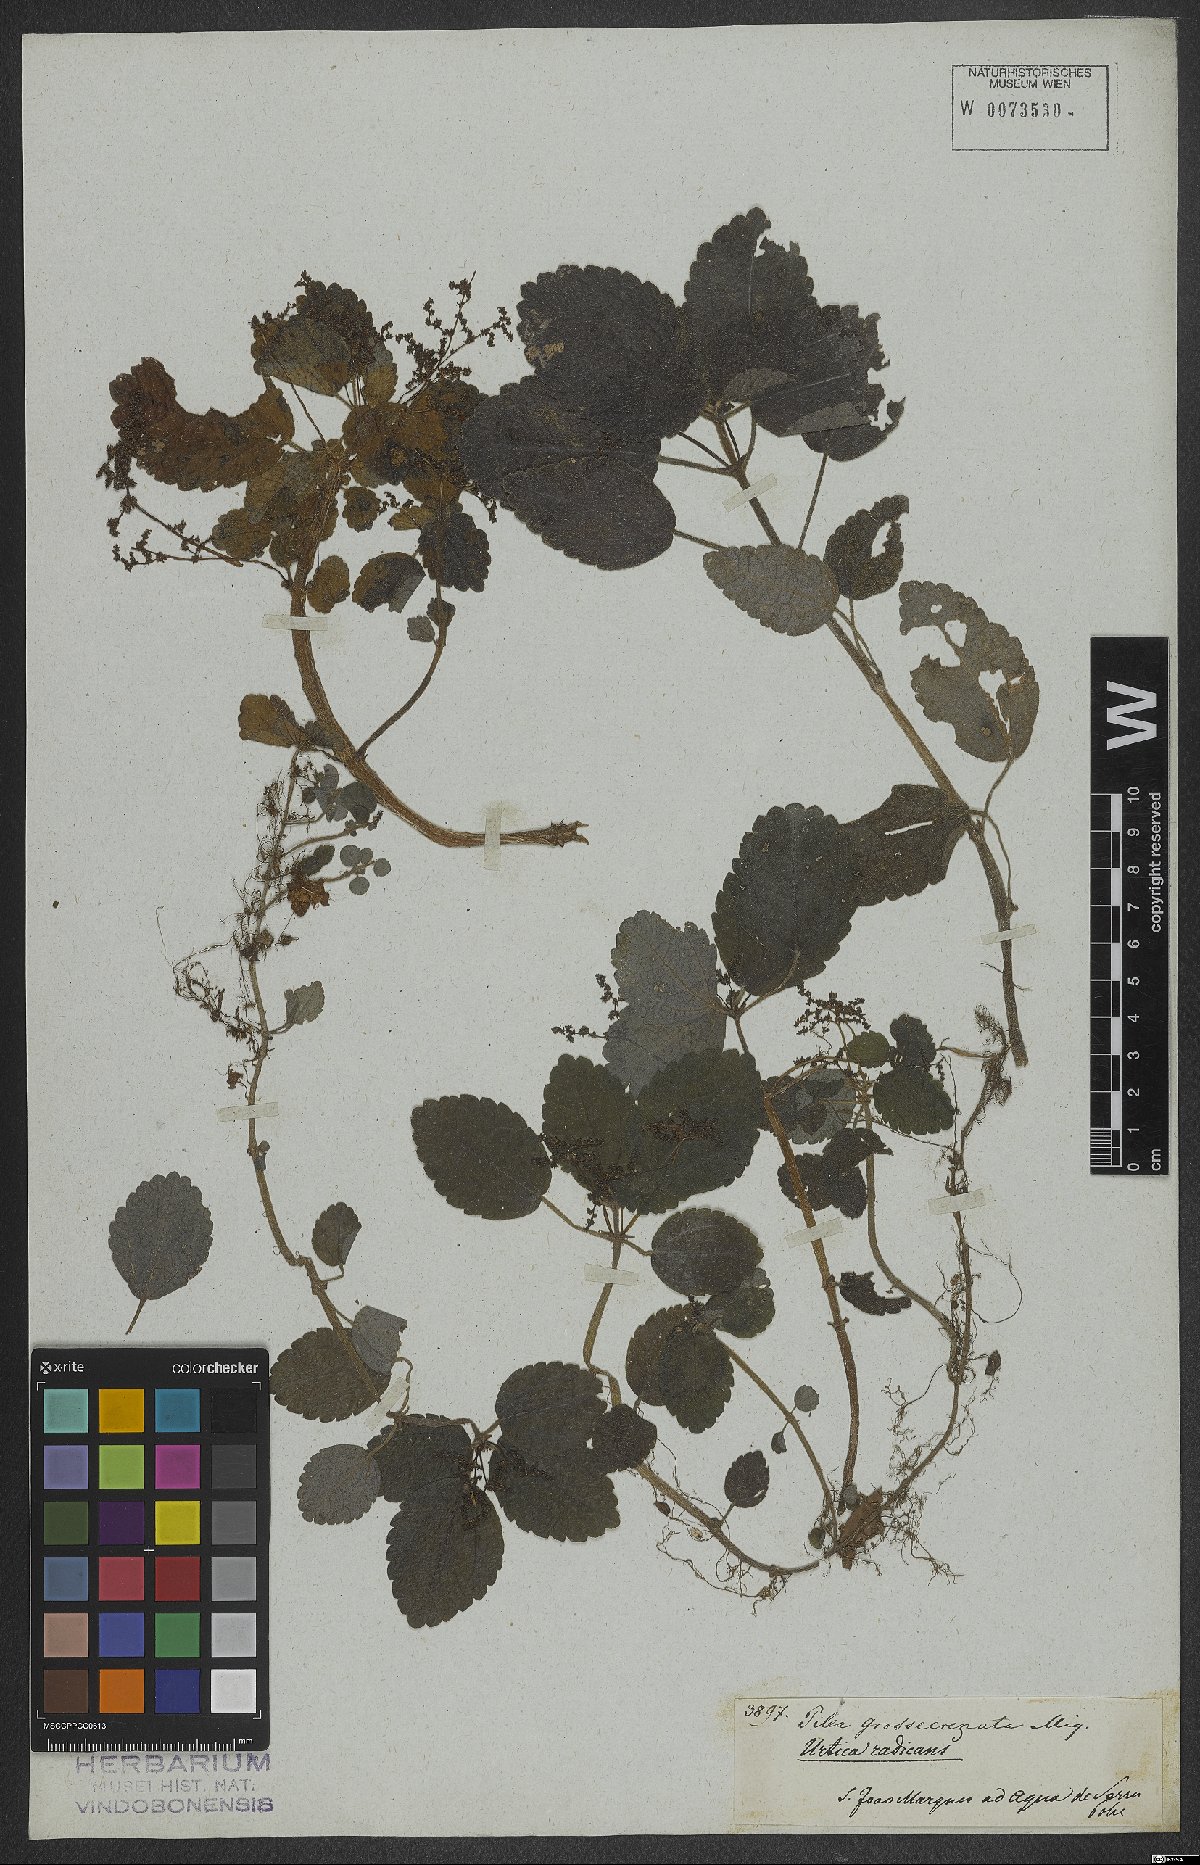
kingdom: Plantae
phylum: Tracheophyta
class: Magnoliopsida
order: Rosales
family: Urticaceae
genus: Pilea
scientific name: Pilea pubescens
